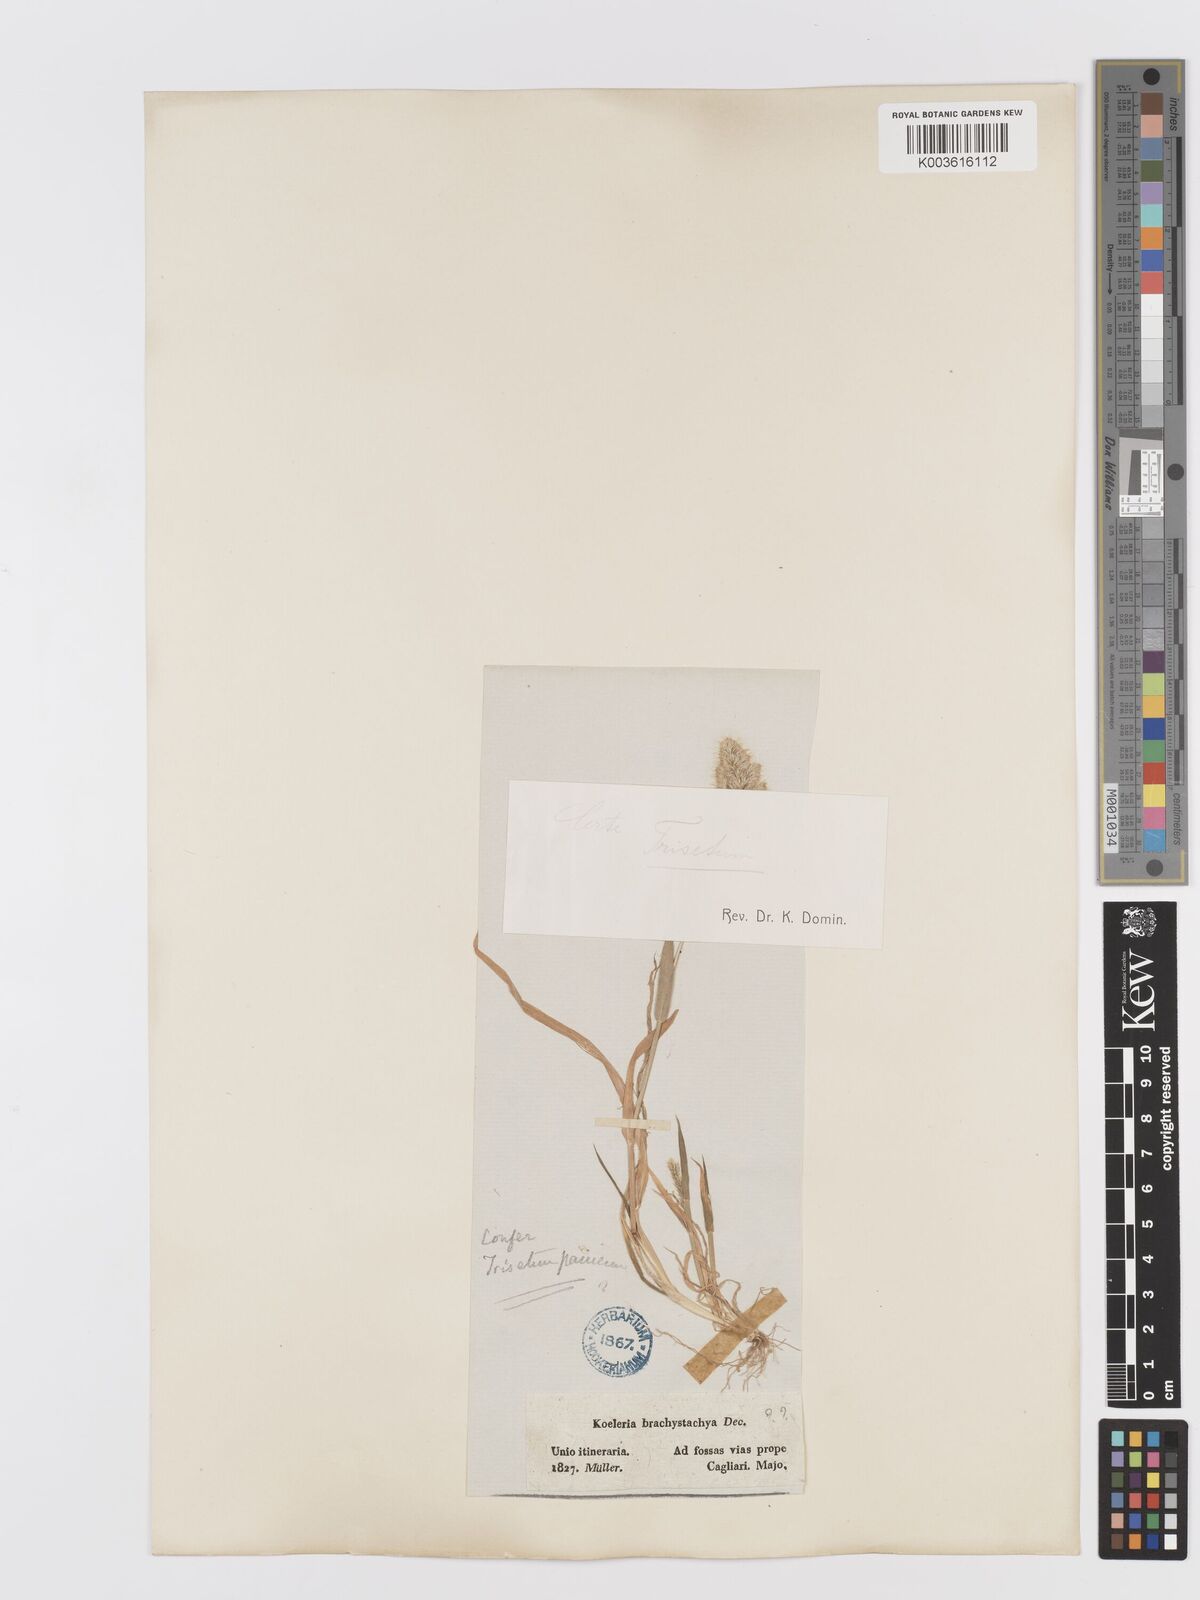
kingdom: Plantae
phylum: Tracheophyta
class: Liliopsida
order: Poales
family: Poaceae
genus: Trisetaria
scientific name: Trisetaria panicea
